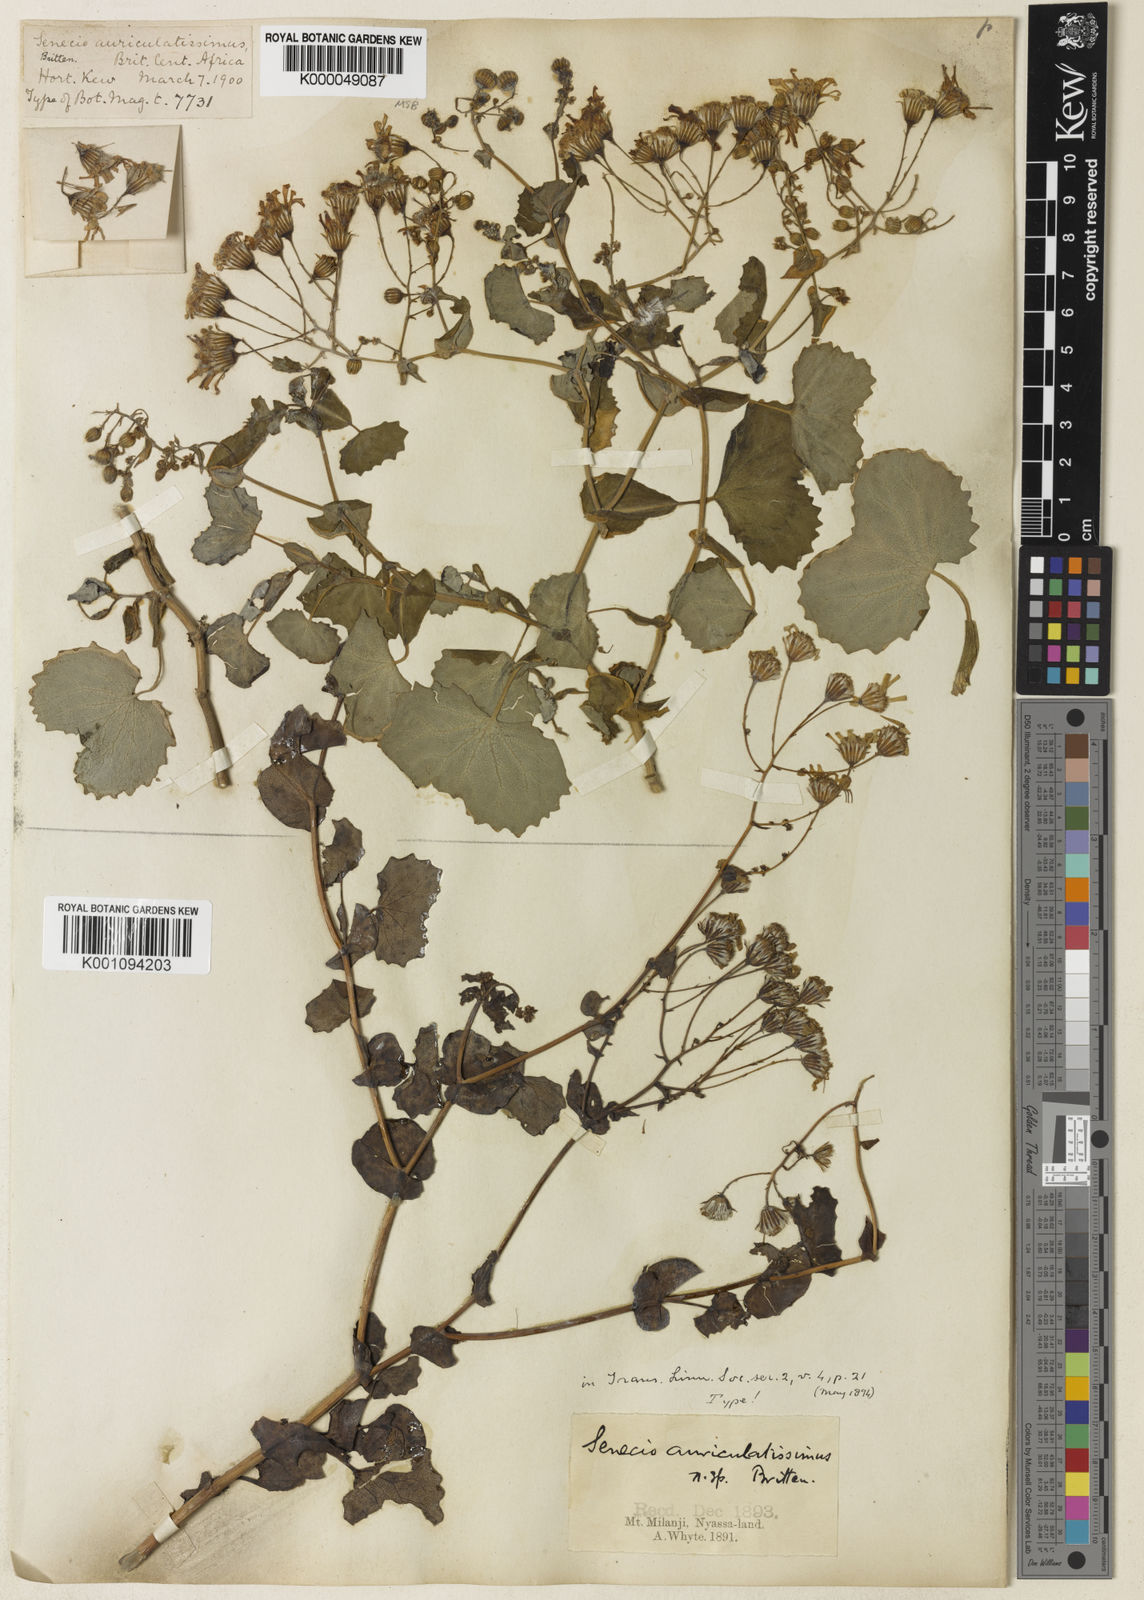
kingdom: Plantae
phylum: Tracheophyta
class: Magnoliopsida
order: Asterales
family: Asteraceae
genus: Senecio
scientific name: Senecio auriculatissimus
